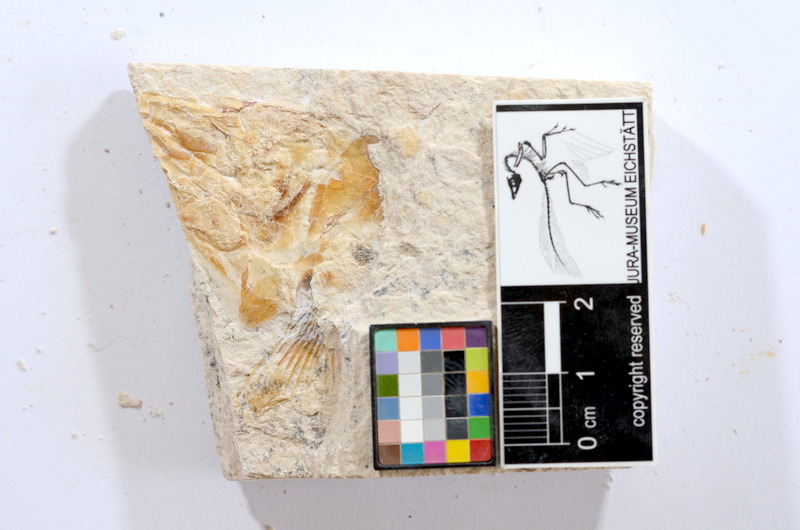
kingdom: Animalia
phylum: Chordata
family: Ascalaboidae
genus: Tharsis
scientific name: Tharsis dubius
